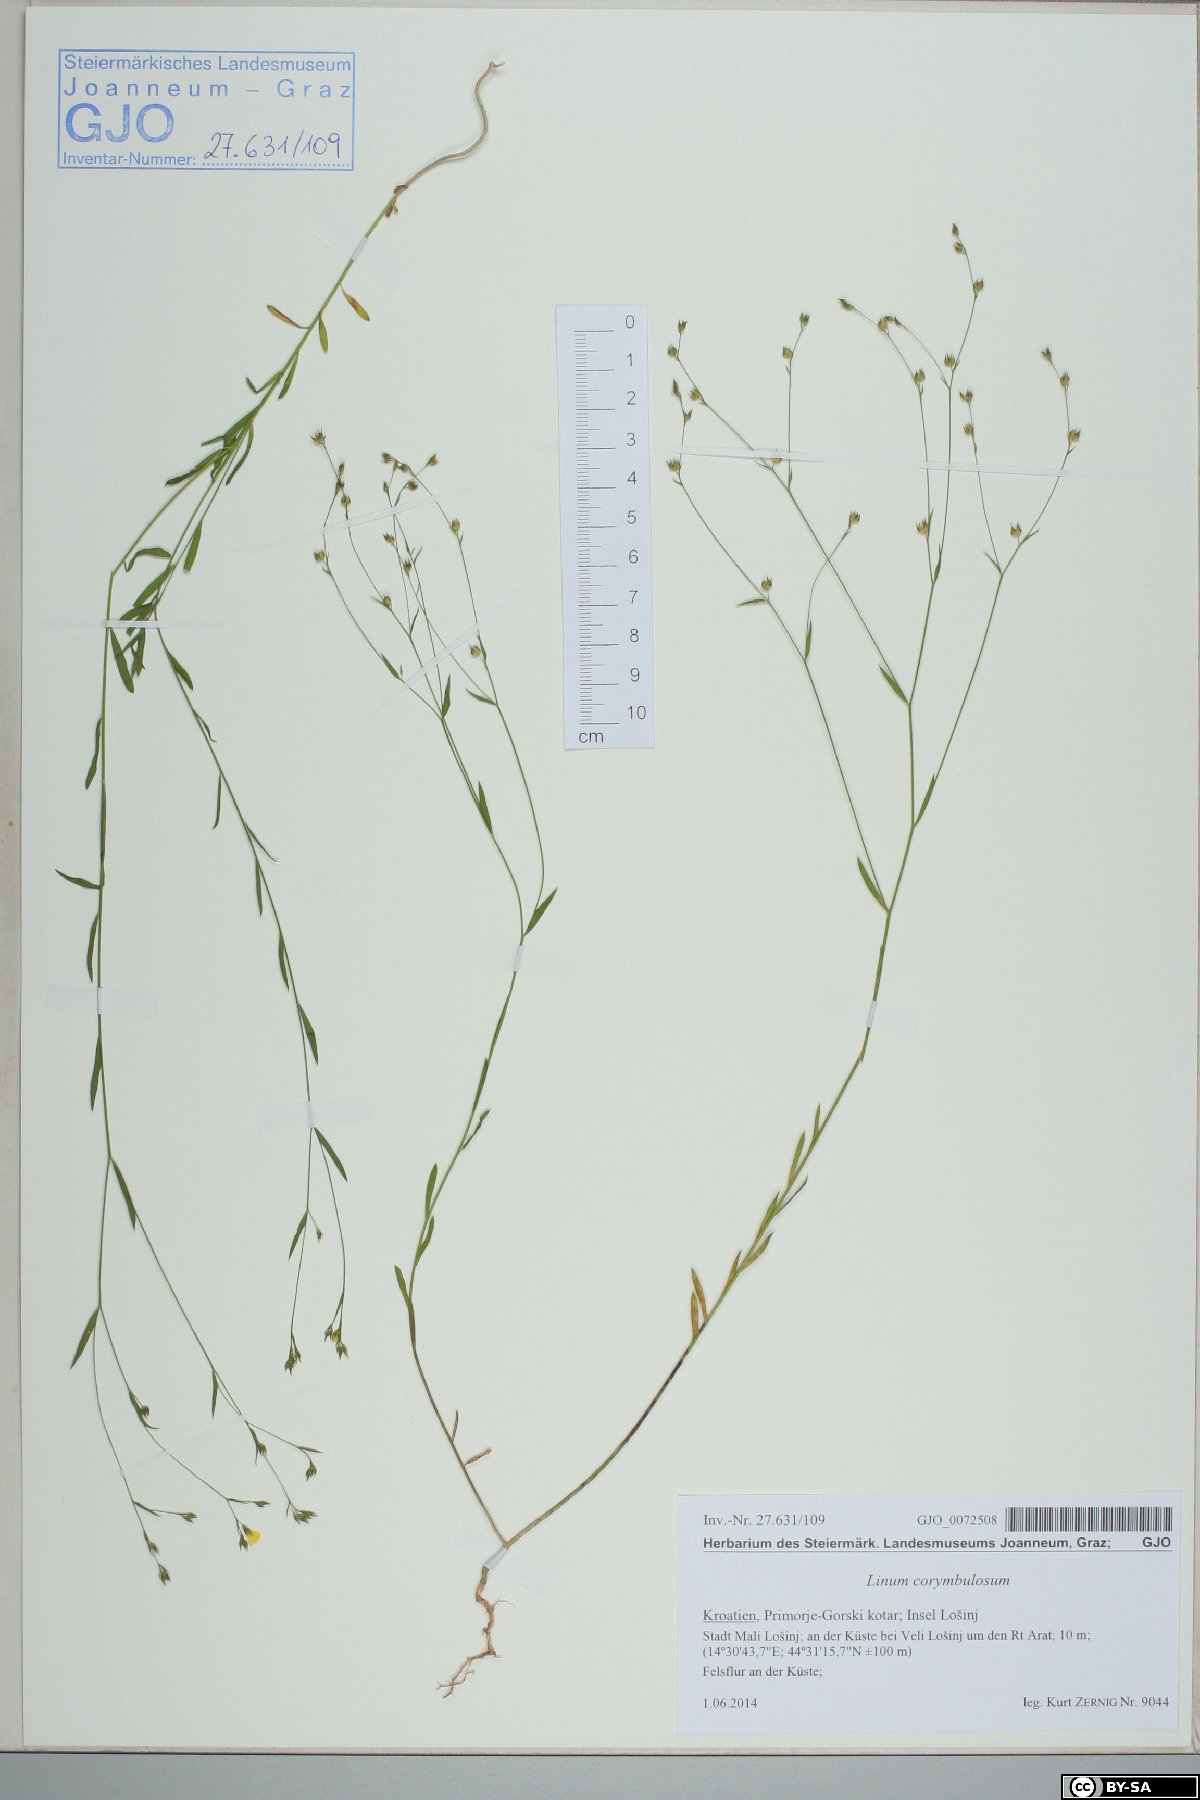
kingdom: Plantae
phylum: Tracheophyta
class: Magnoliopsida
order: Malpighiales
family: Linaceae
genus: Linum
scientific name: Linum corymbulosum
